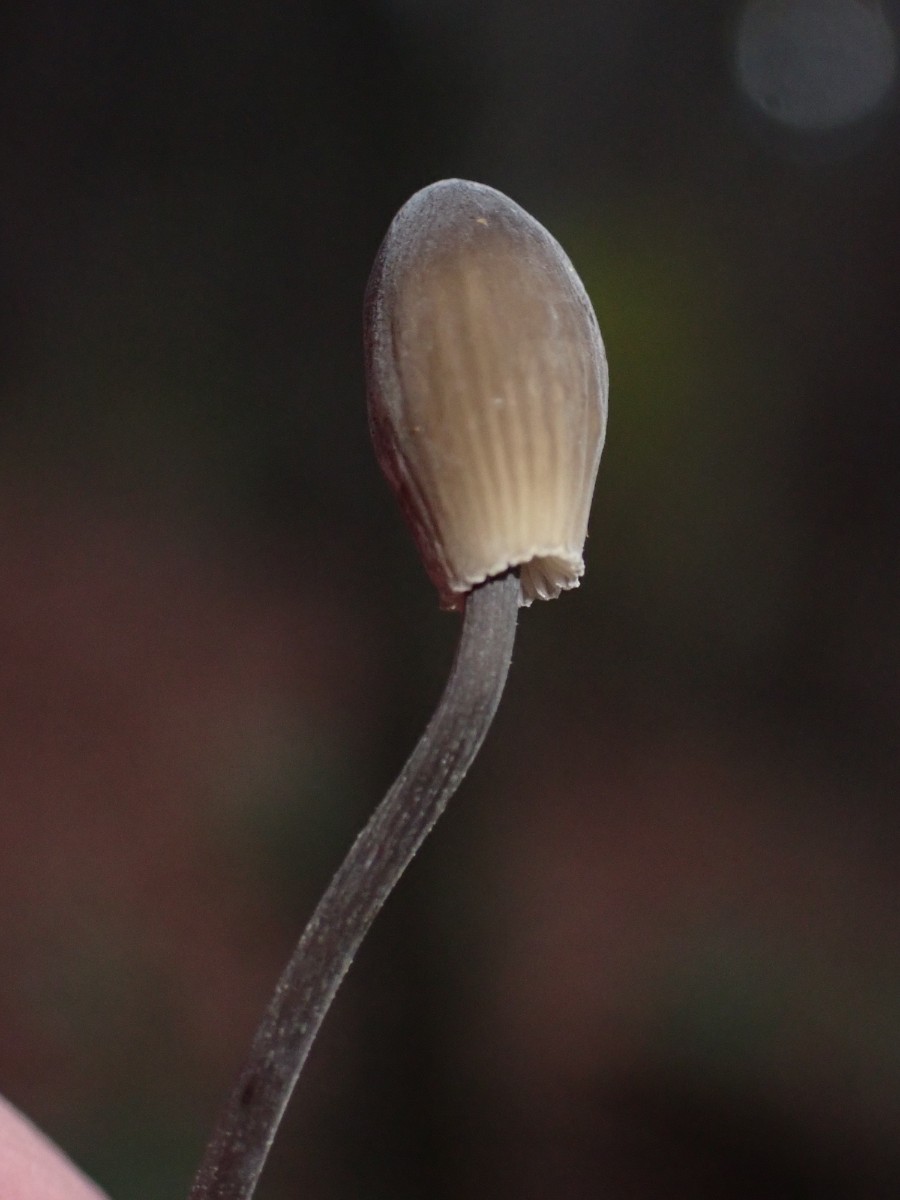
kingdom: Fungi
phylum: Basidiomycota
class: Agaricomycetes
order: Agaricales
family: Mycenaceae
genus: Mycena
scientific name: Mycena
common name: huesvamp
